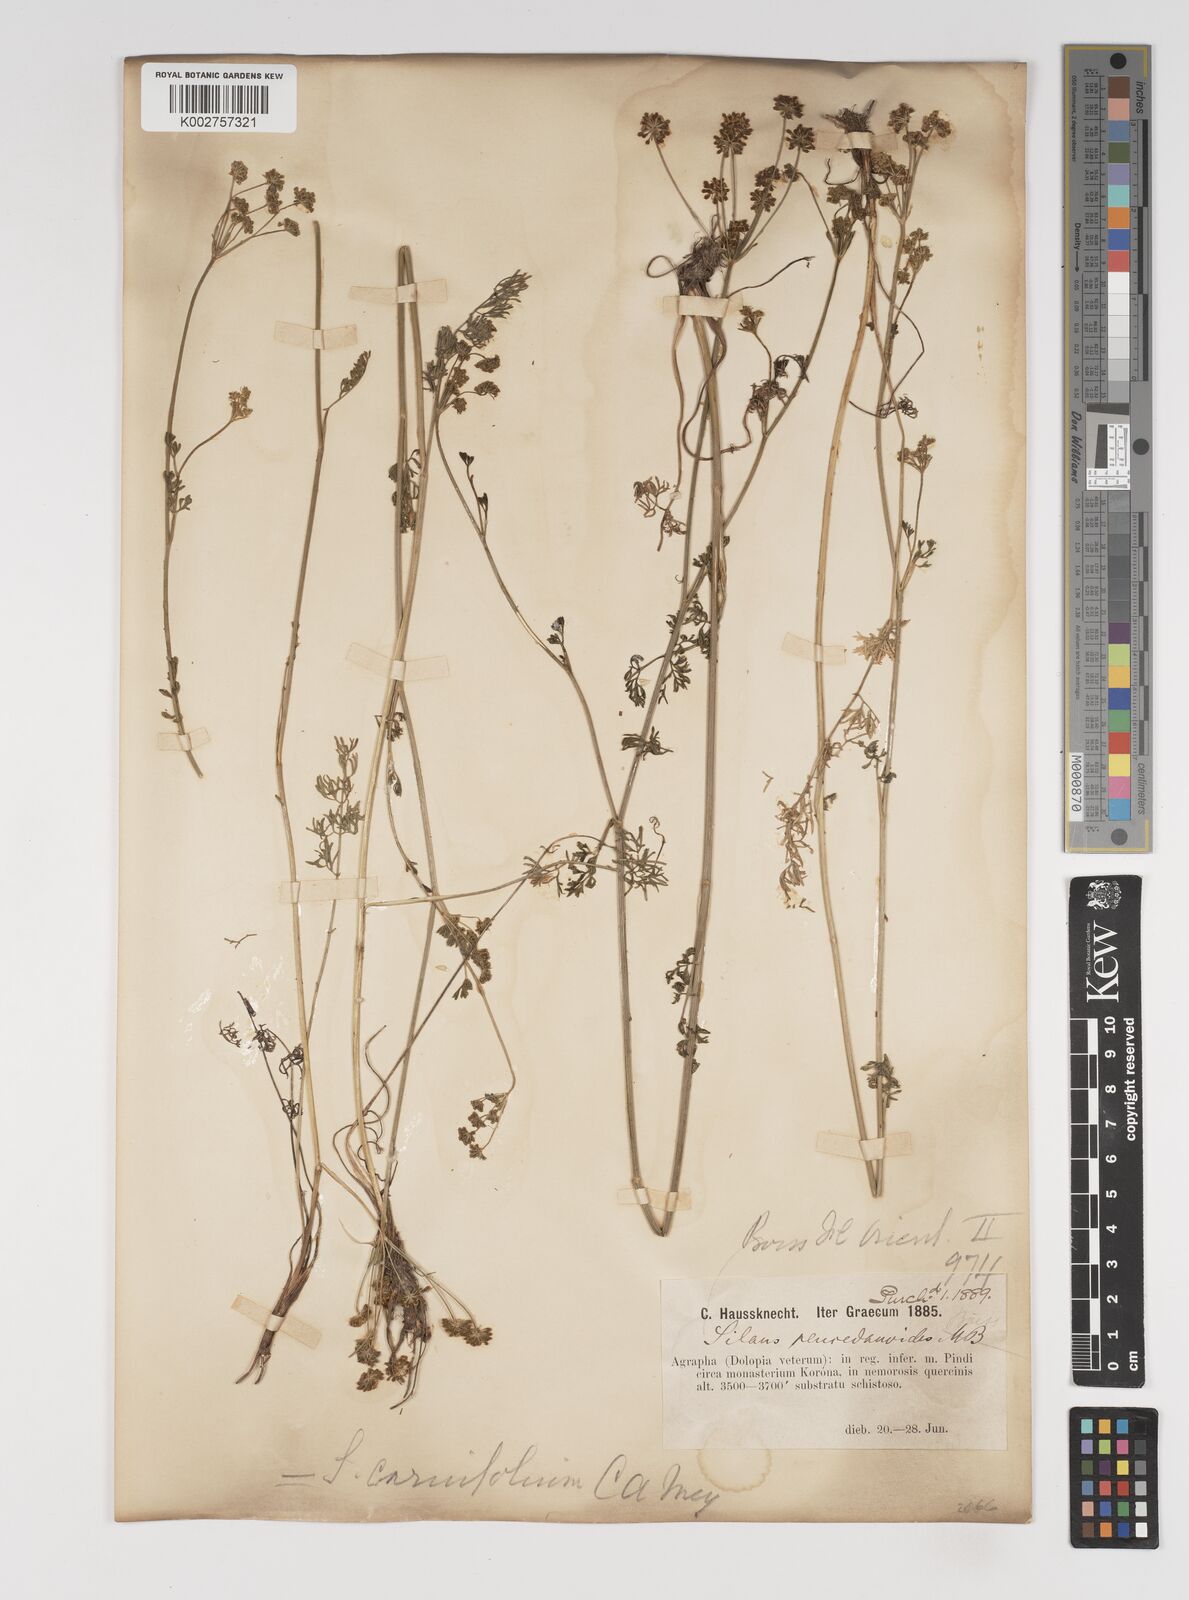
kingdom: Plantae
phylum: Tracheophyta
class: Magnoliopsida
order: Apiales
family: Apiaceae
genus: Gasparinia
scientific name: Gasparinia peucedanoides
